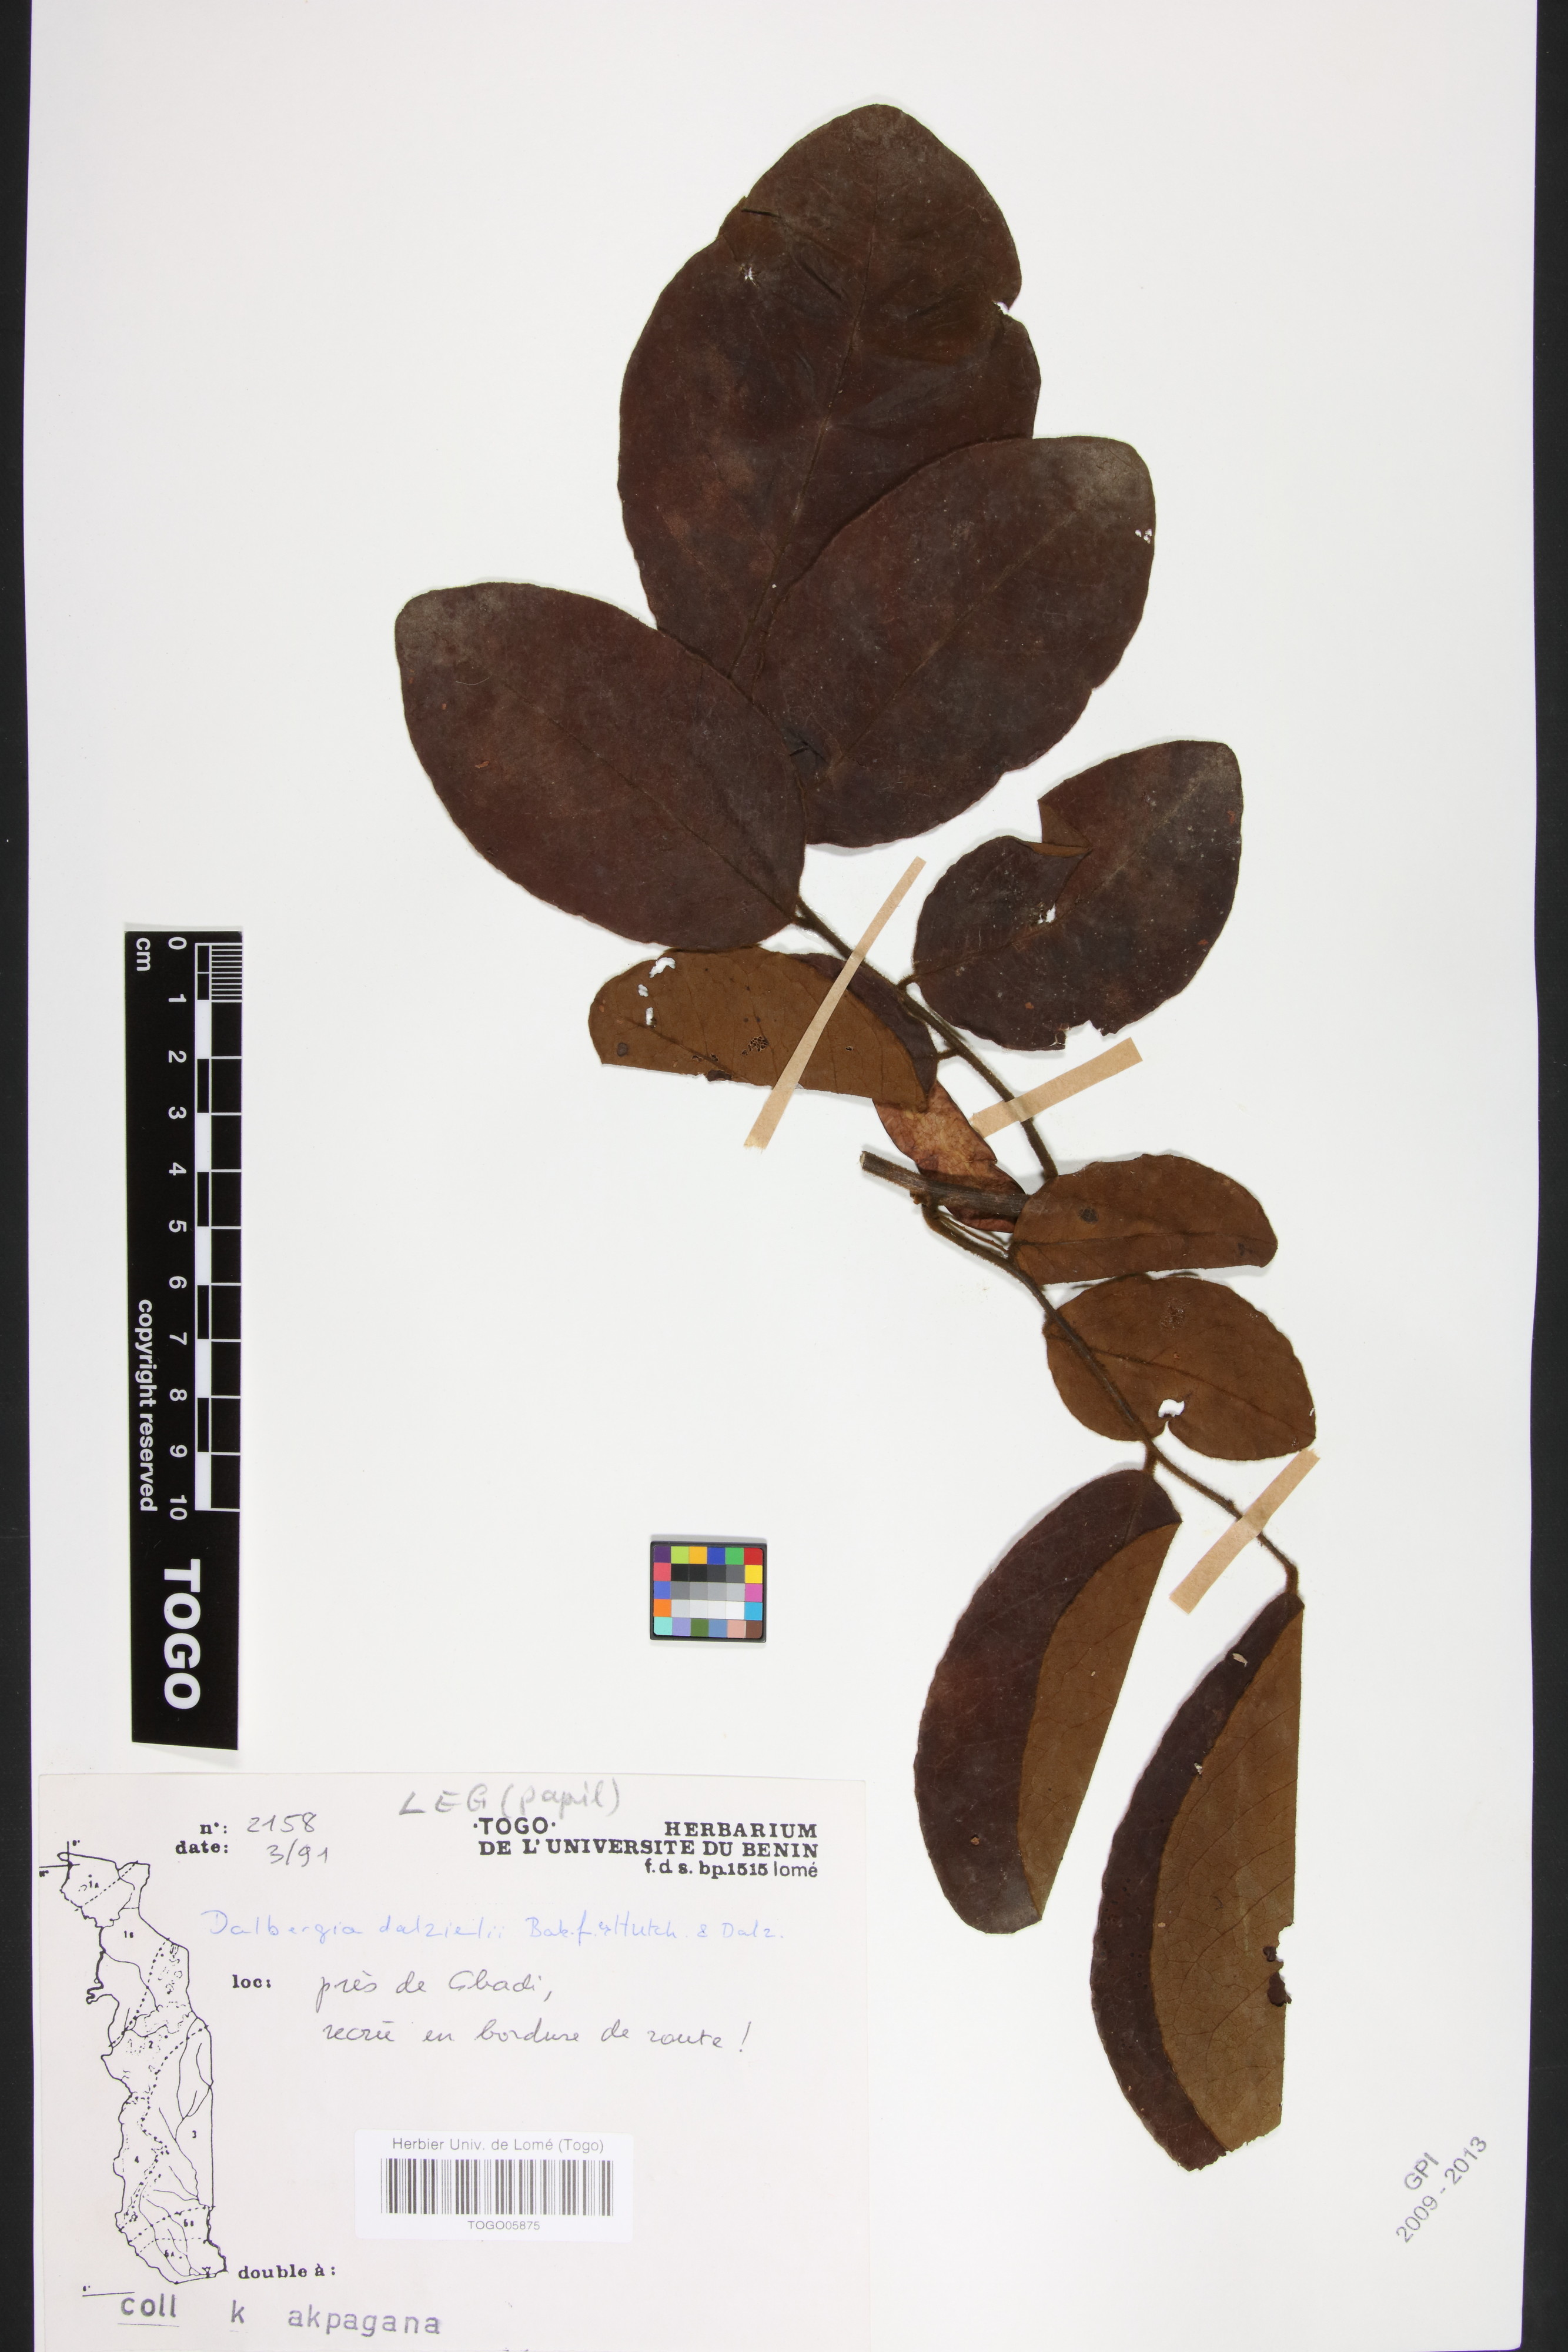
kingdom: Plantae
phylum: Tracheophyta
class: Magnoliopsida
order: Fabales
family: Fabaceae
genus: Dalbergia
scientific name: Dalbergia dalzielii ex
